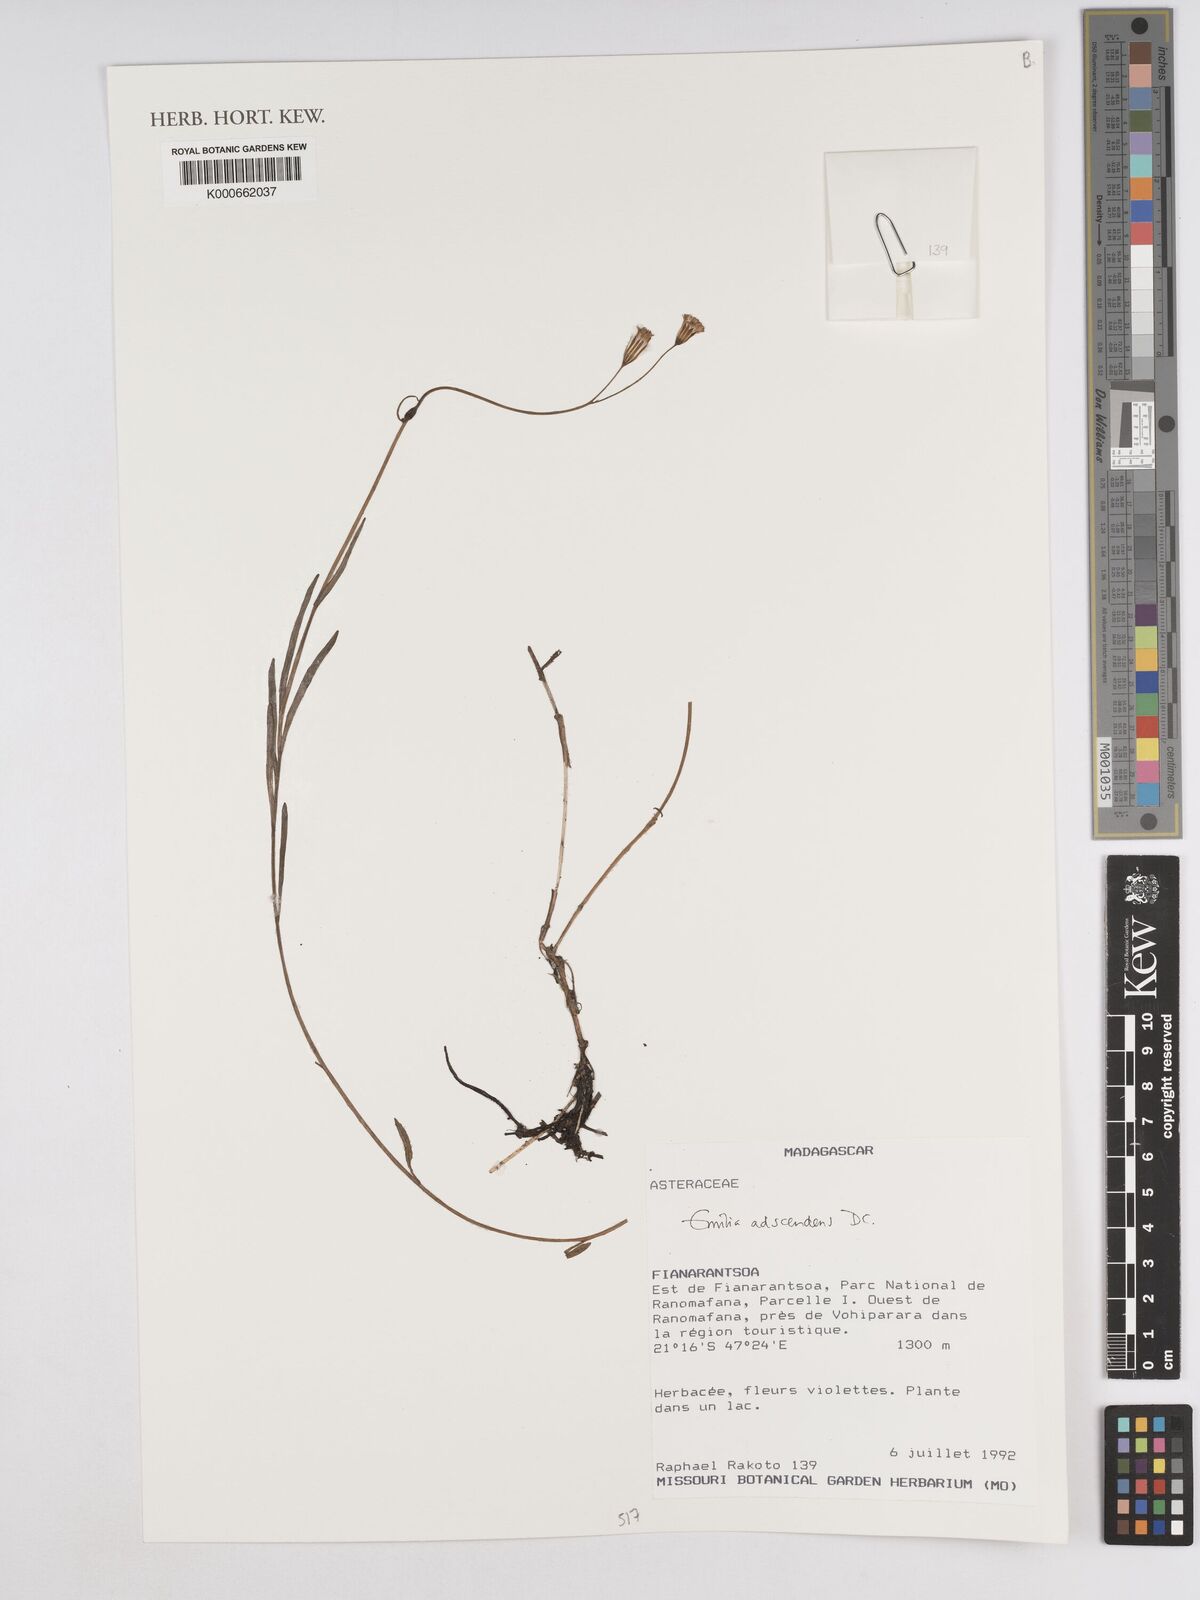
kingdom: Plantae
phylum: Tracheophyta
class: Magnoliopsida
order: Asterales
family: Asteraceae
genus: Emilia
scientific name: Emilia adscendens
